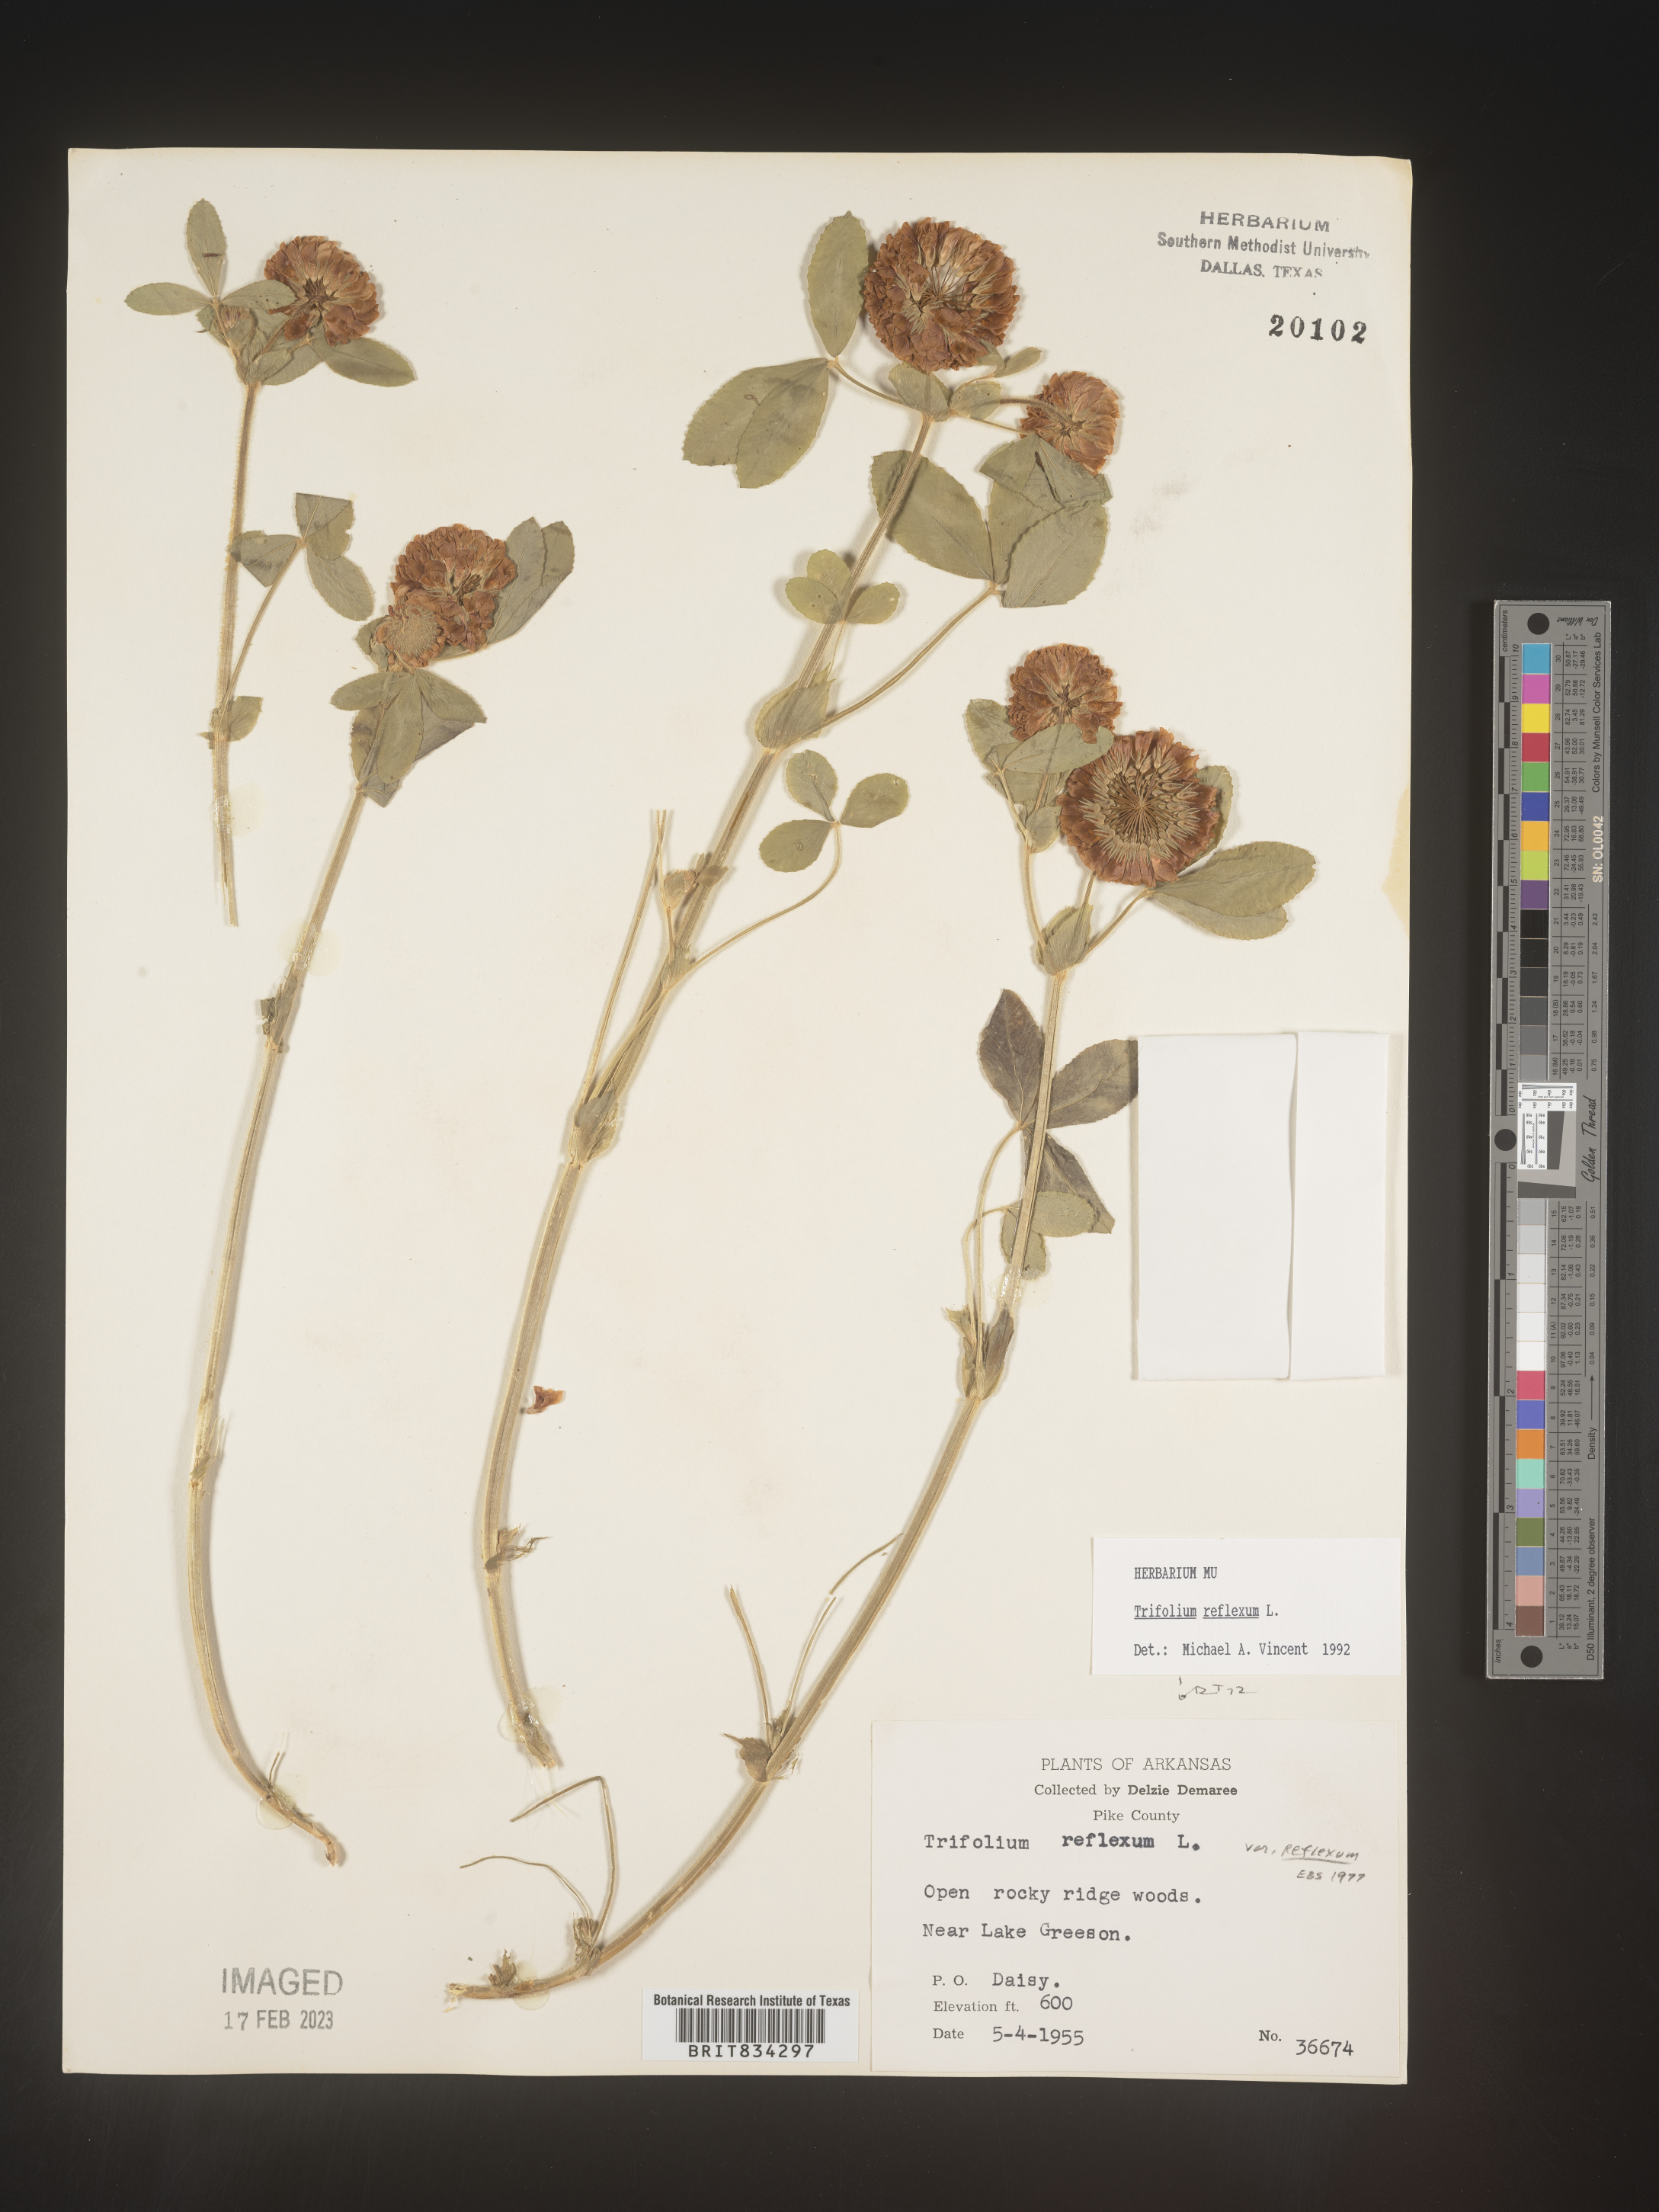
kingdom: Plantae
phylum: Tracheophyta
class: Magnoliopsida
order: Fabales
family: Fabaceae
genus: Trifolium
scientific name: Trifolium reflexum
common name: Buffalo clover
